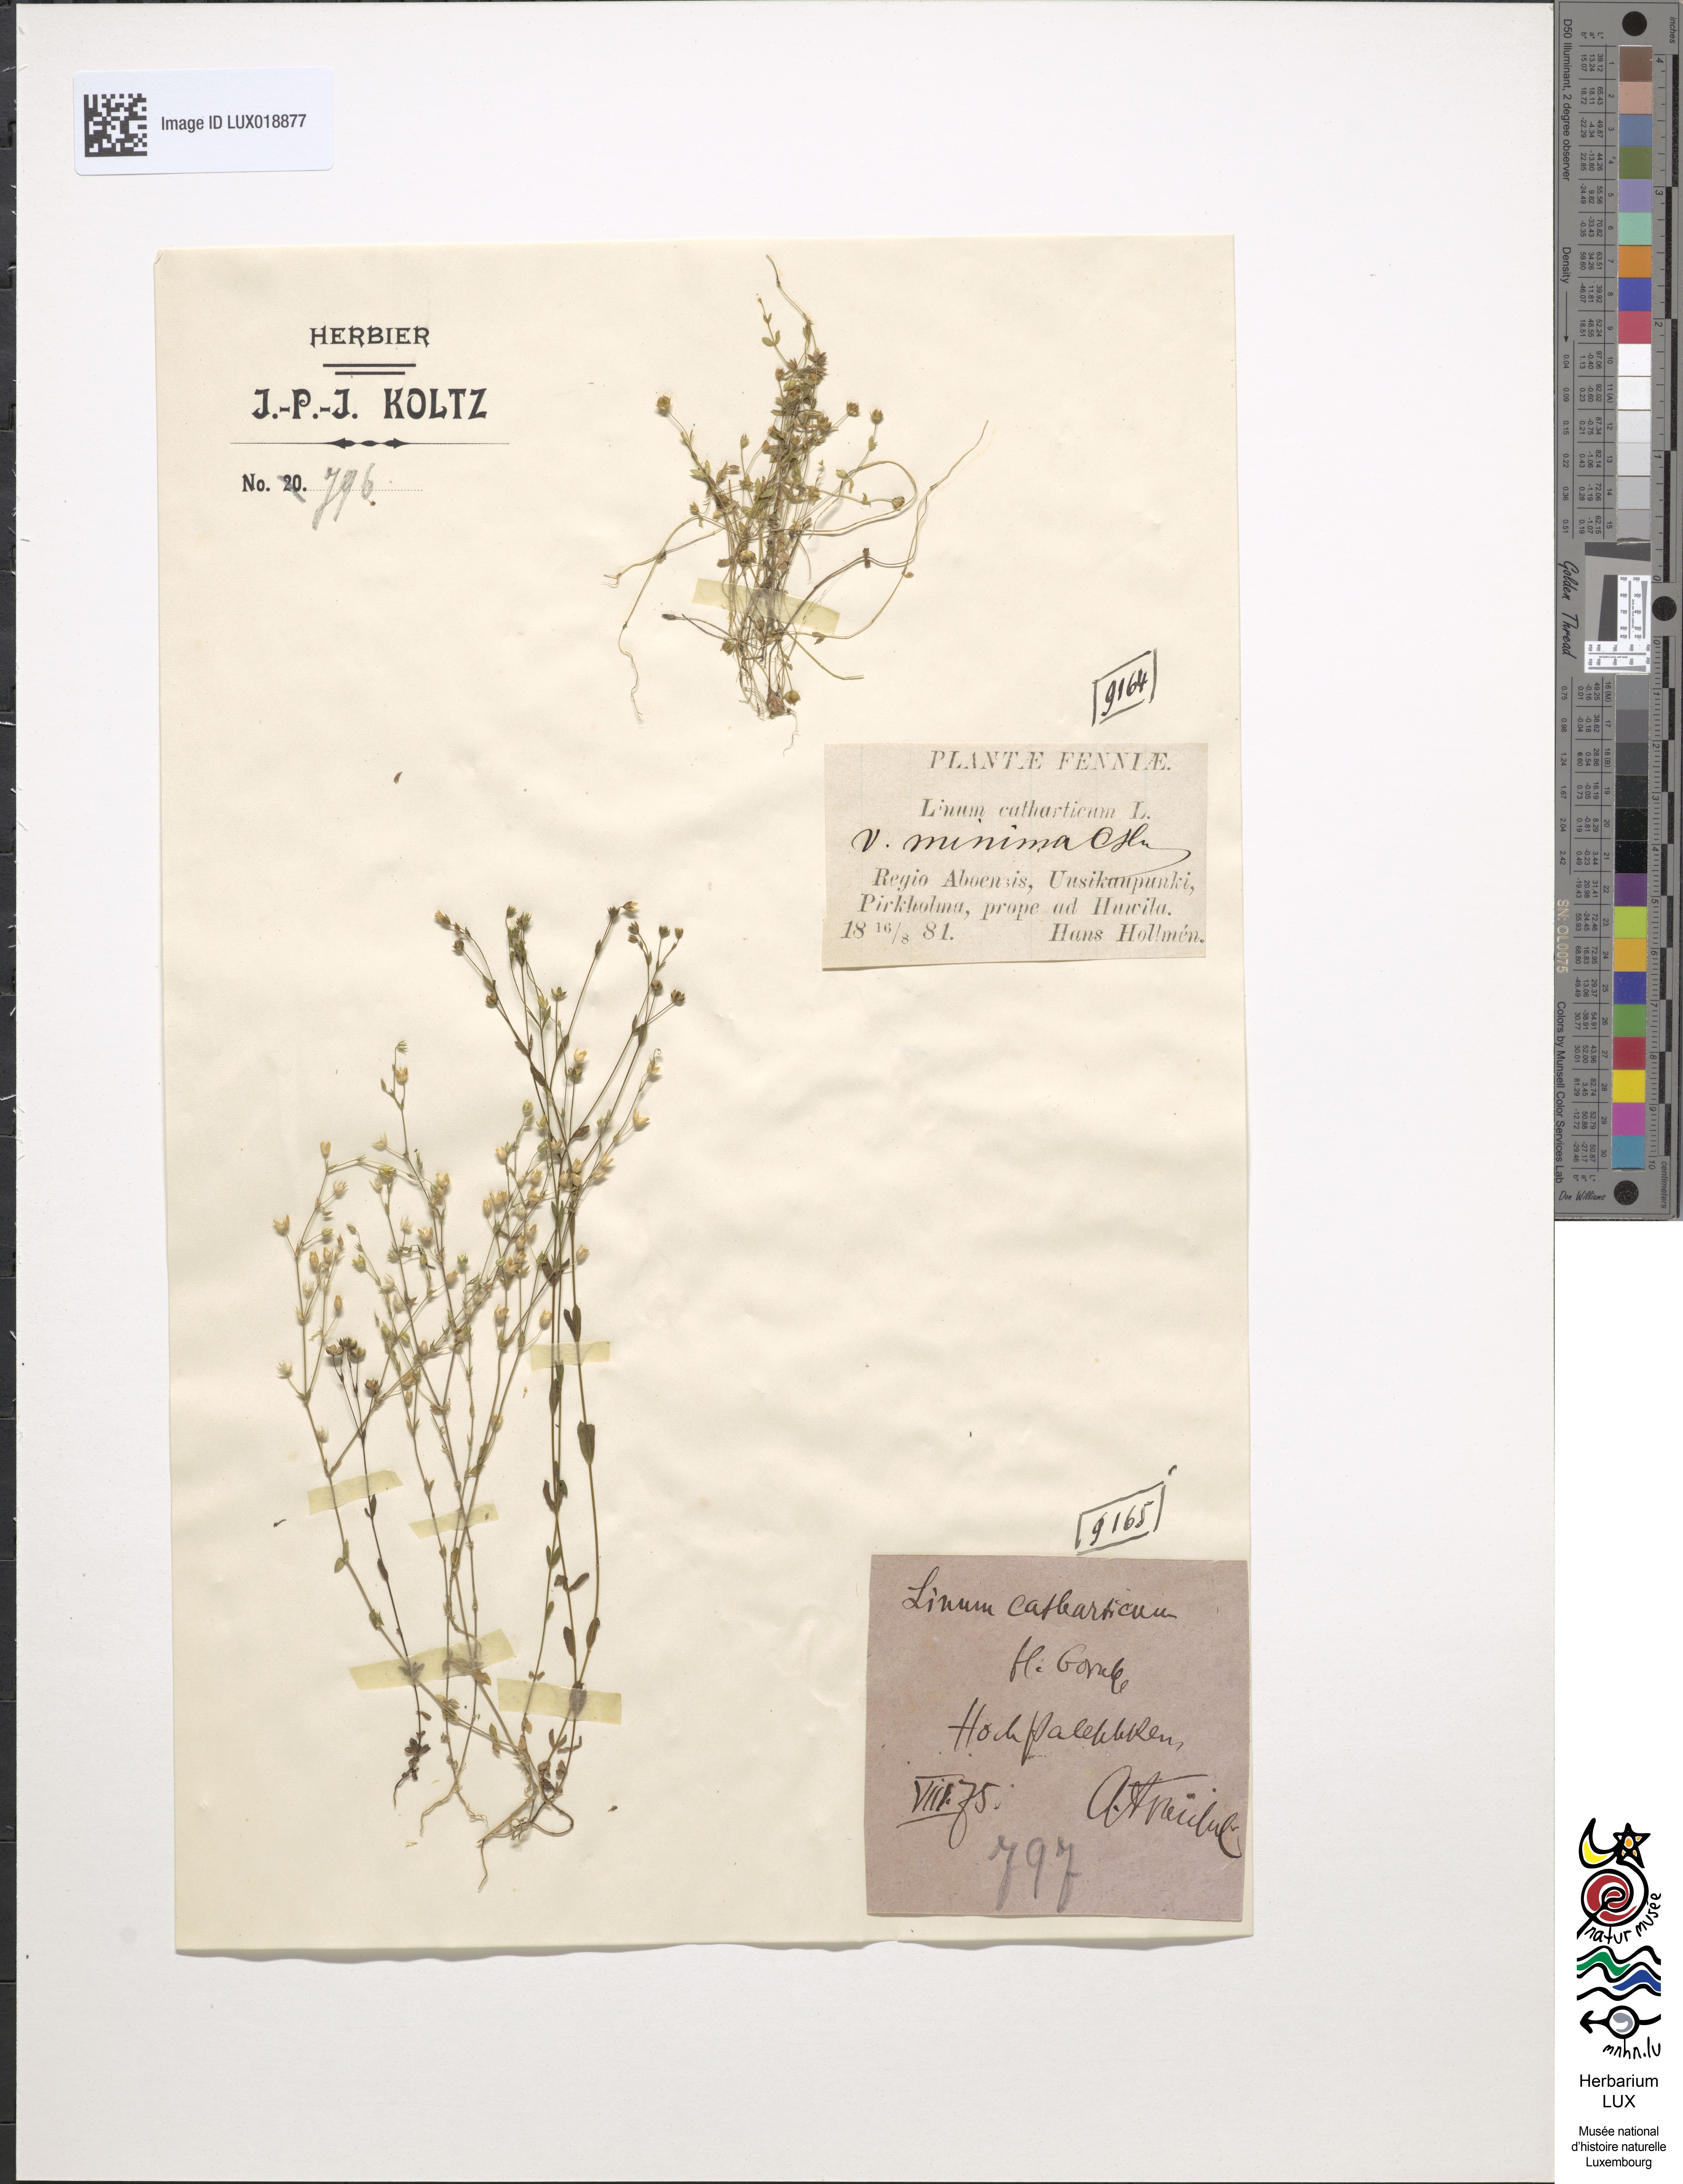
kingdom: Plantae
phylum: Tracheophyta
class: Magnoliopsida
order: Malpighiales
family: Linaceae
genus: Linum
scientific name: Linum catharticum
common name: Fairy flax
